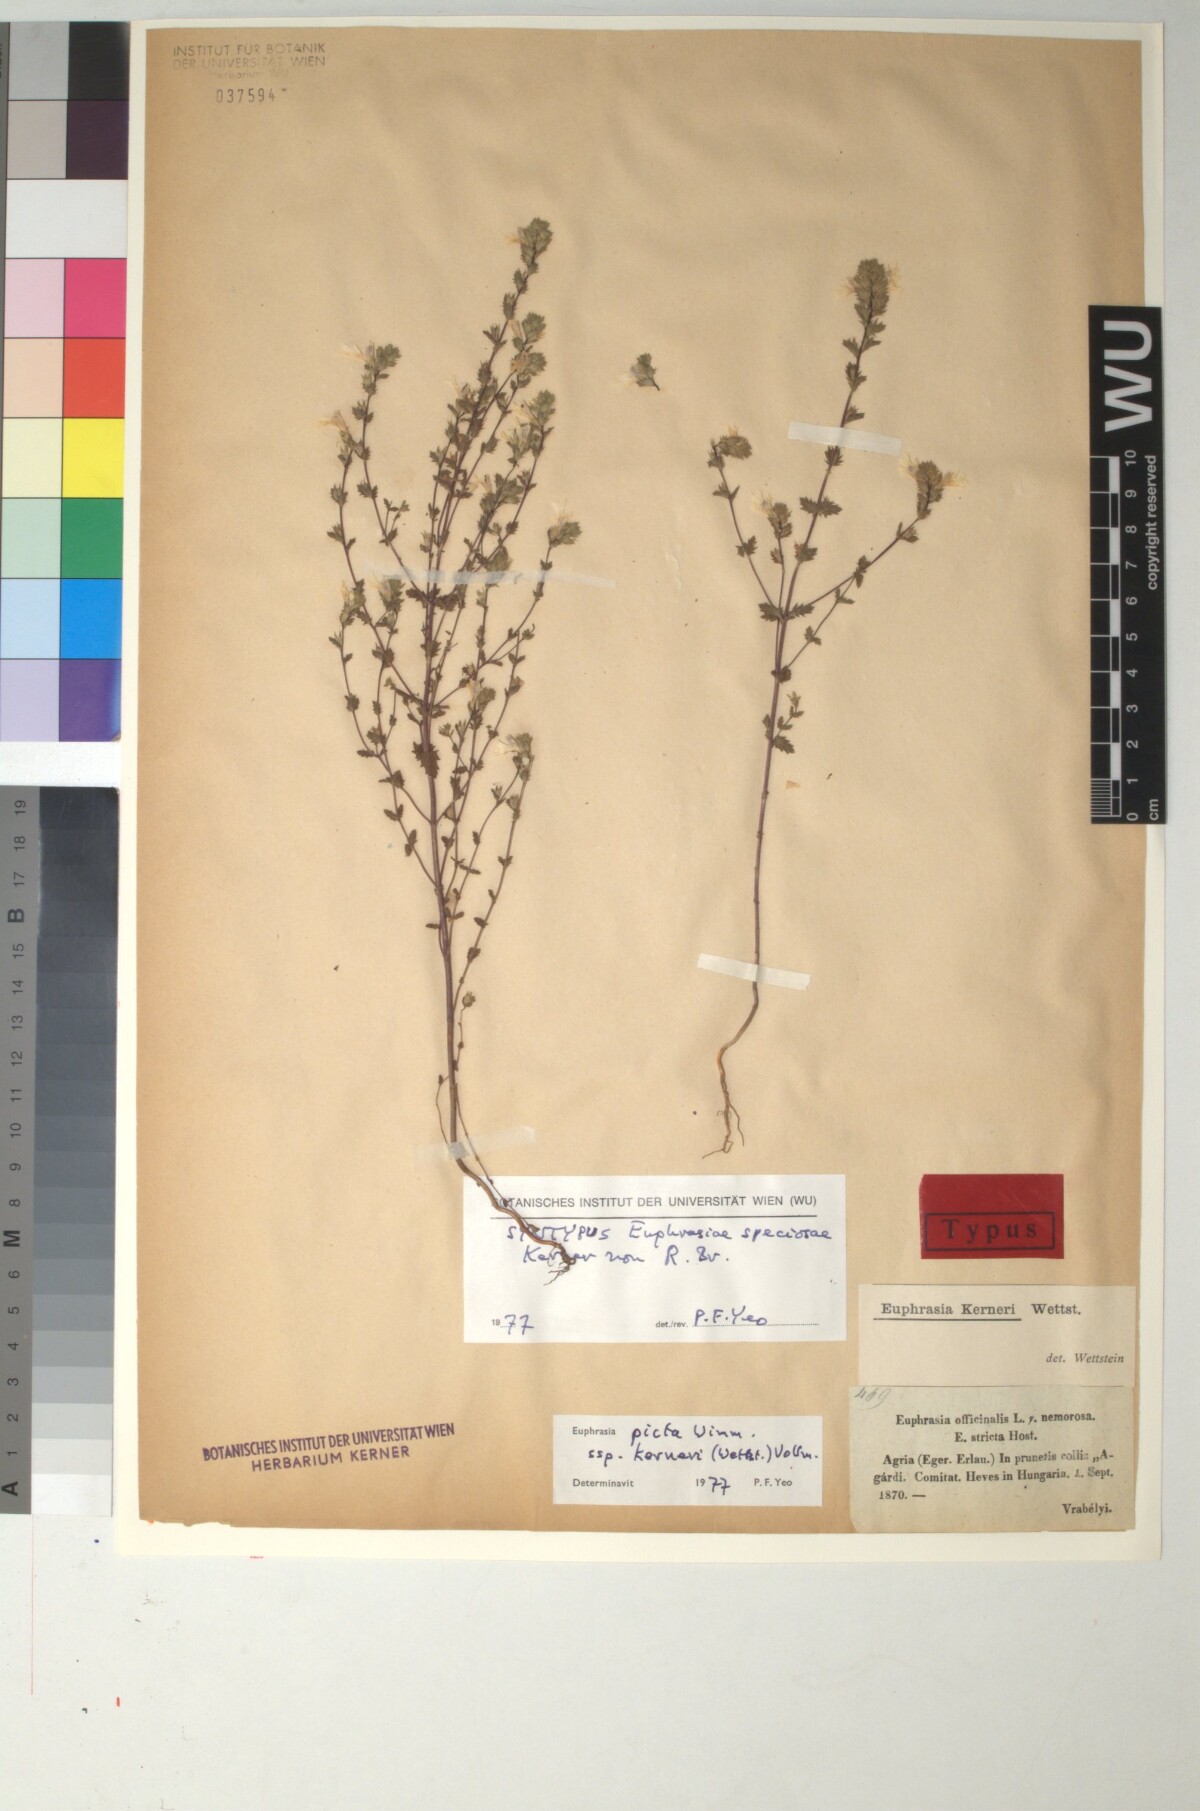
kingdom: Plantae
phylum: Tracheophyta
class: Magnoliopsida
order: Lamiales
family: Orobanchaceae
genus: Euphrasia
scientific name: Euphrasia kerneri
